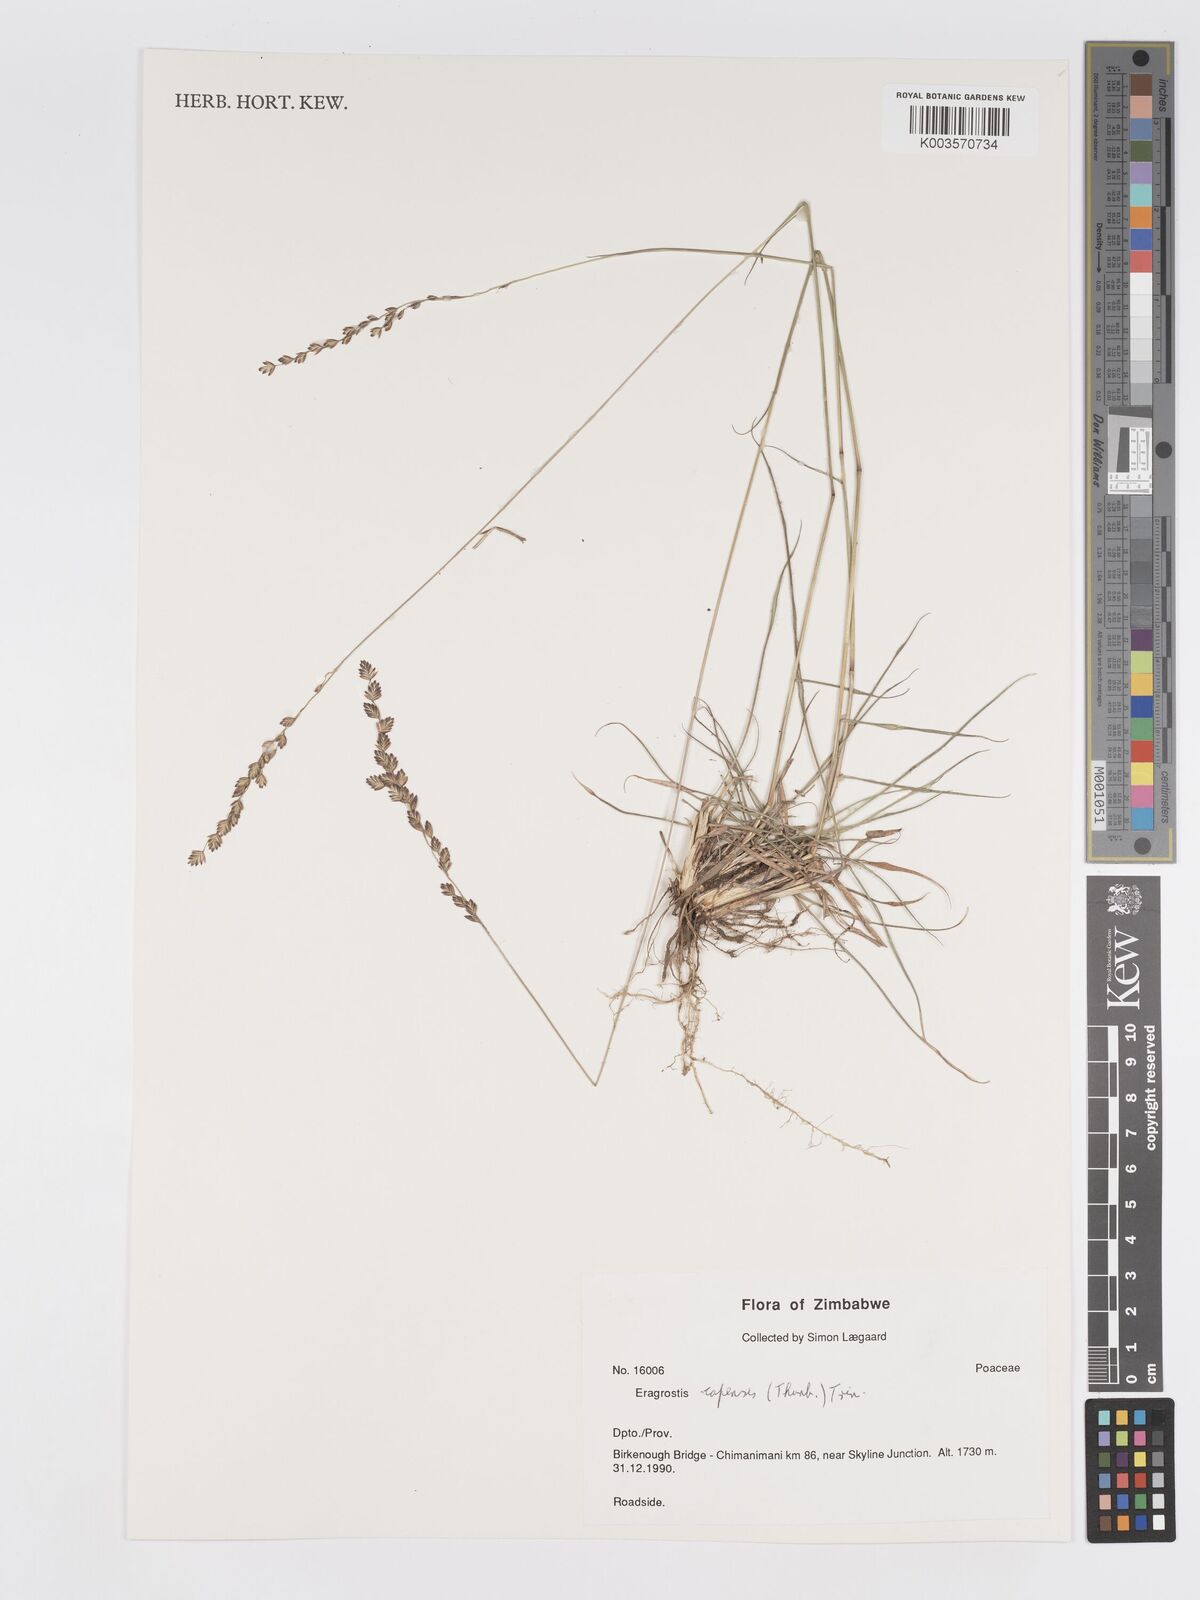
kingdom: Plantae
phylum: Tracheophyta
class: Liliopsida
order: Poales
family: Poaceae
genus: Eragrostis
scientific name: Eragrostis capensis
